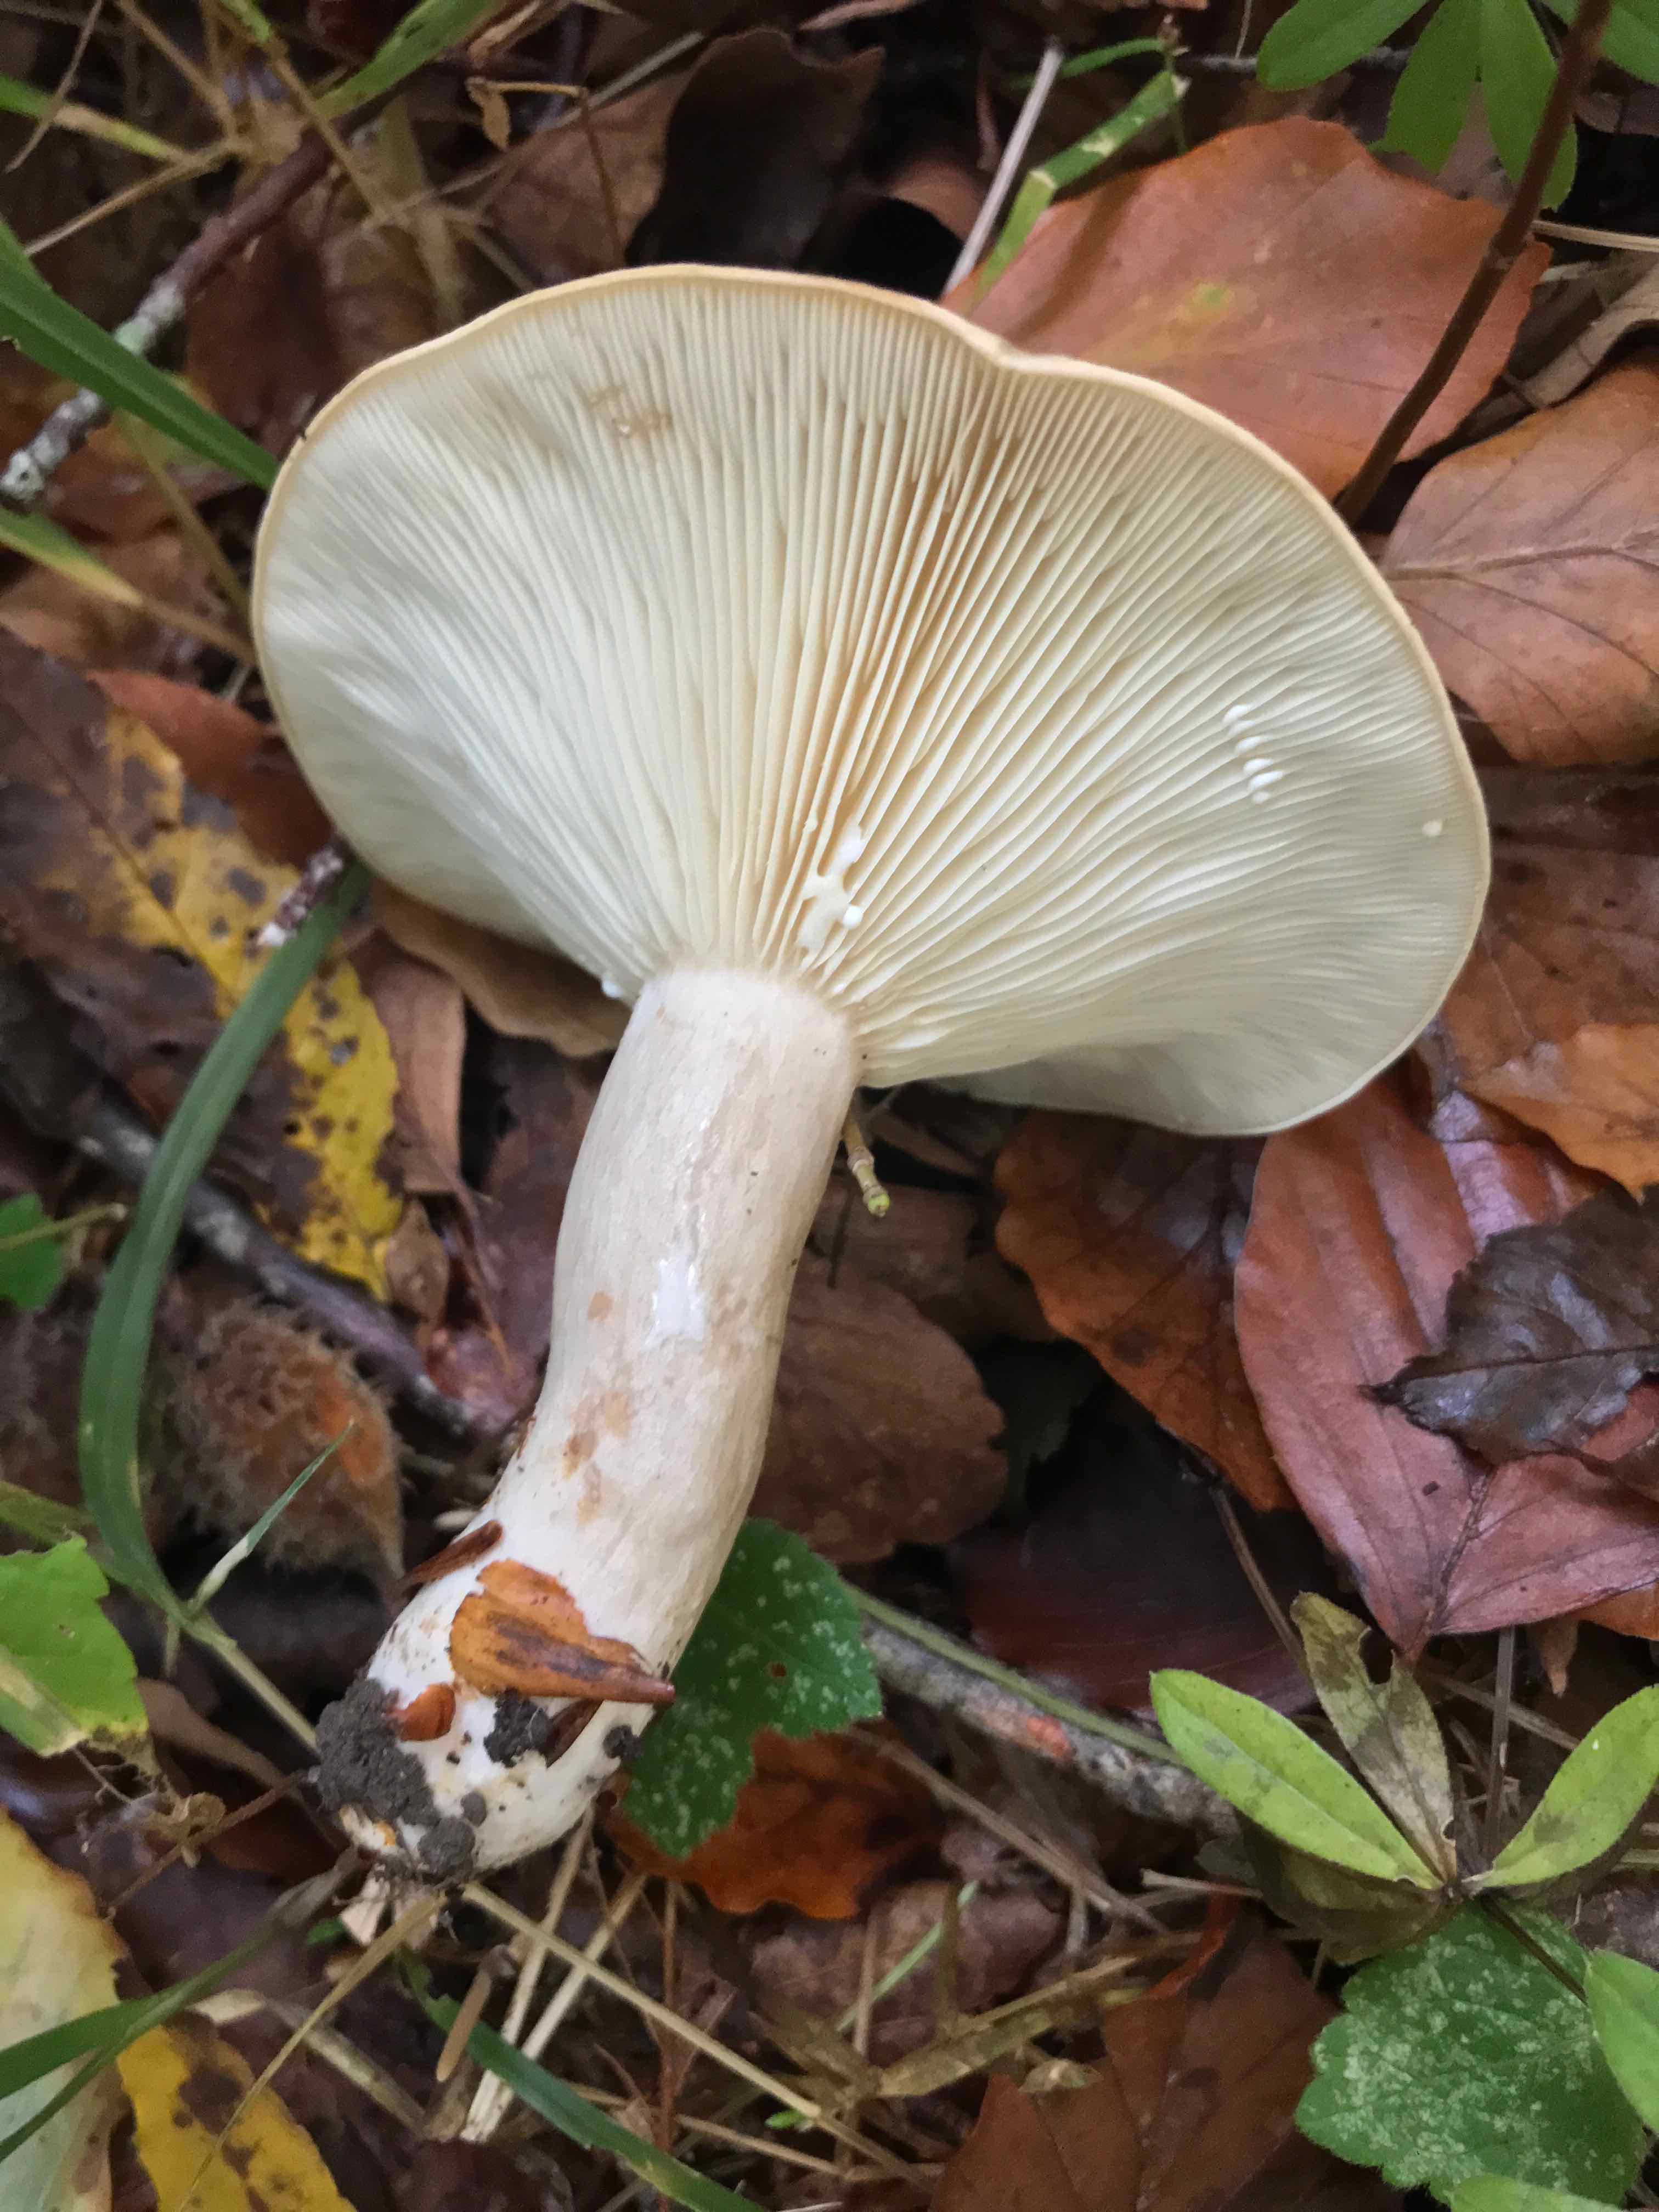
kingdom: Fungi
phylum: Basidiomycota
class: Agaricomycetes
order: Russulales
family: Russulaceae
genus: Lactarius
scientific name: Lactarius blennius
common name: dråbeplettet mælkehat
